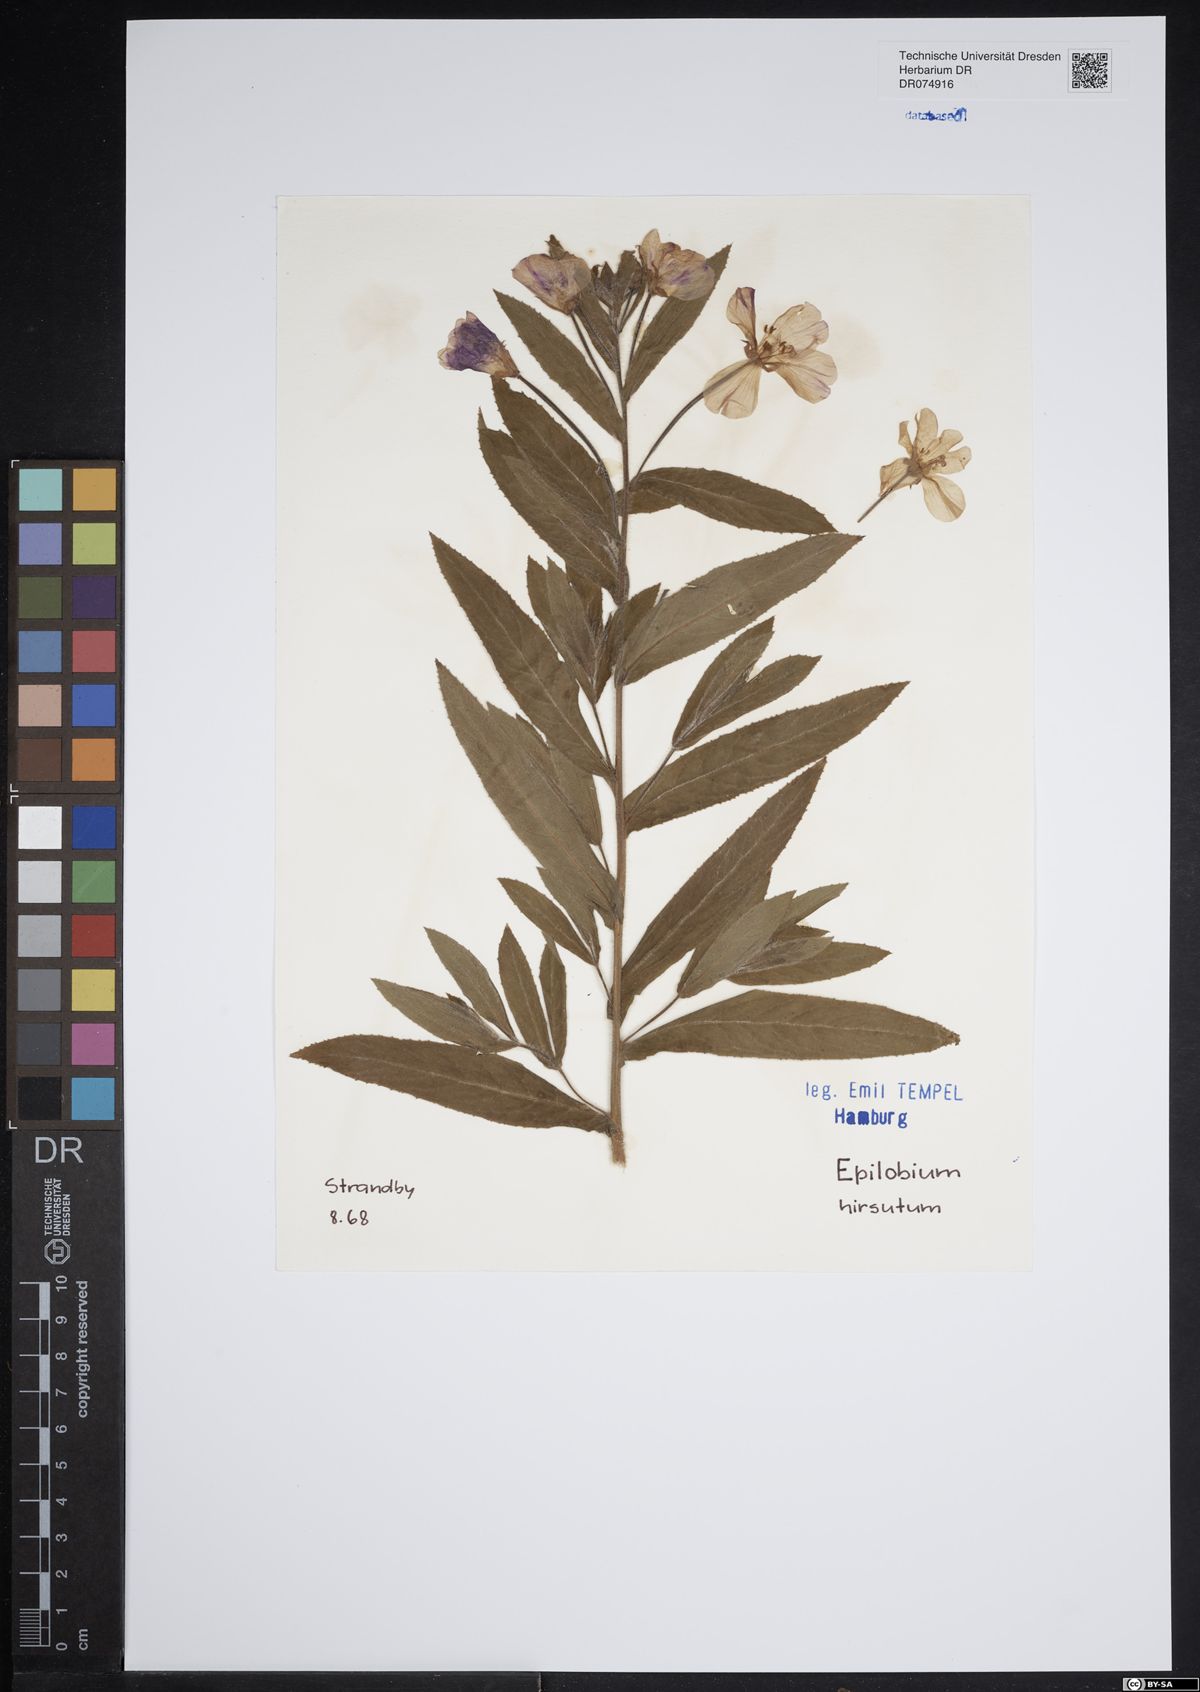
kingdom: Plantae
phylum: Tracheophyta
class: Magnoliopsida
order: Myrtales
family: Onagraceae
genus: Epilobium
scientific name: Epilobium hirsutum
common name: Great willowherb
